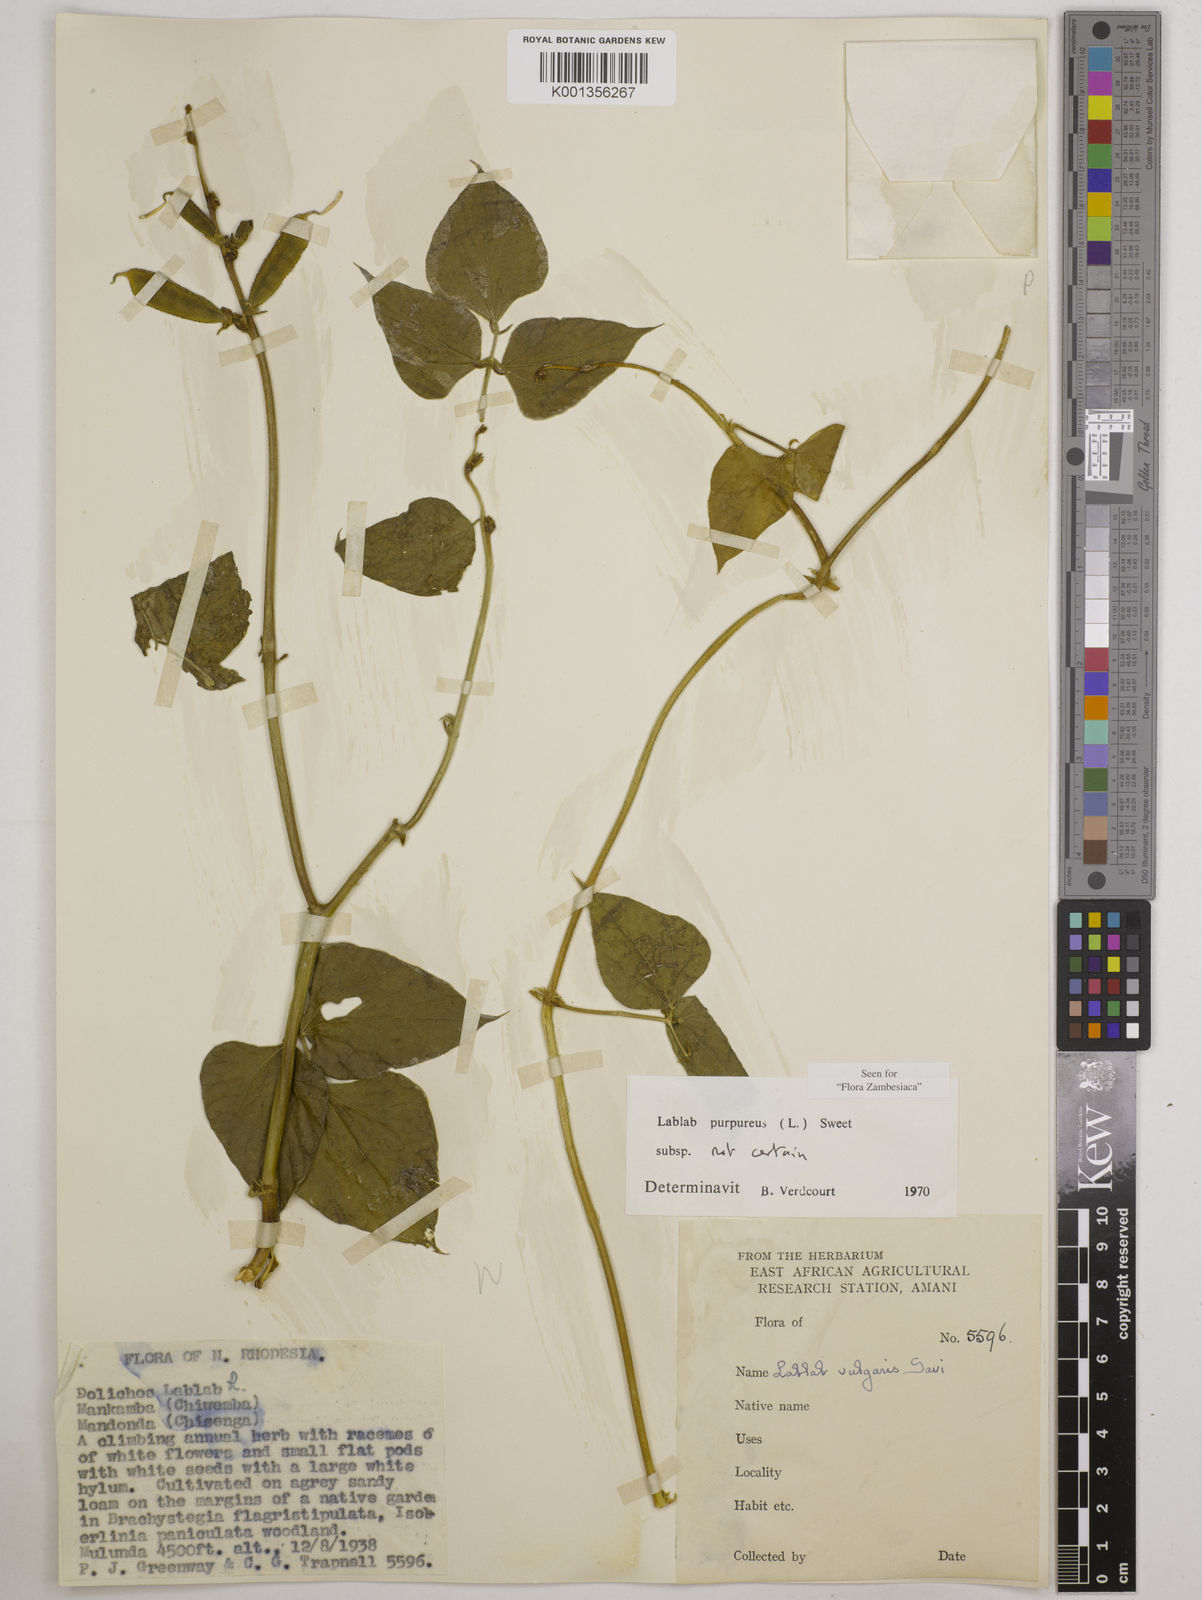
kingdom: Plantae
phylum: Tracheophyta
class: Magnoliopsida
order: Fabales
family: Fabaceae
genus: Lablab
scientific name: Lablab purpureus
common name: Lablab-bean
